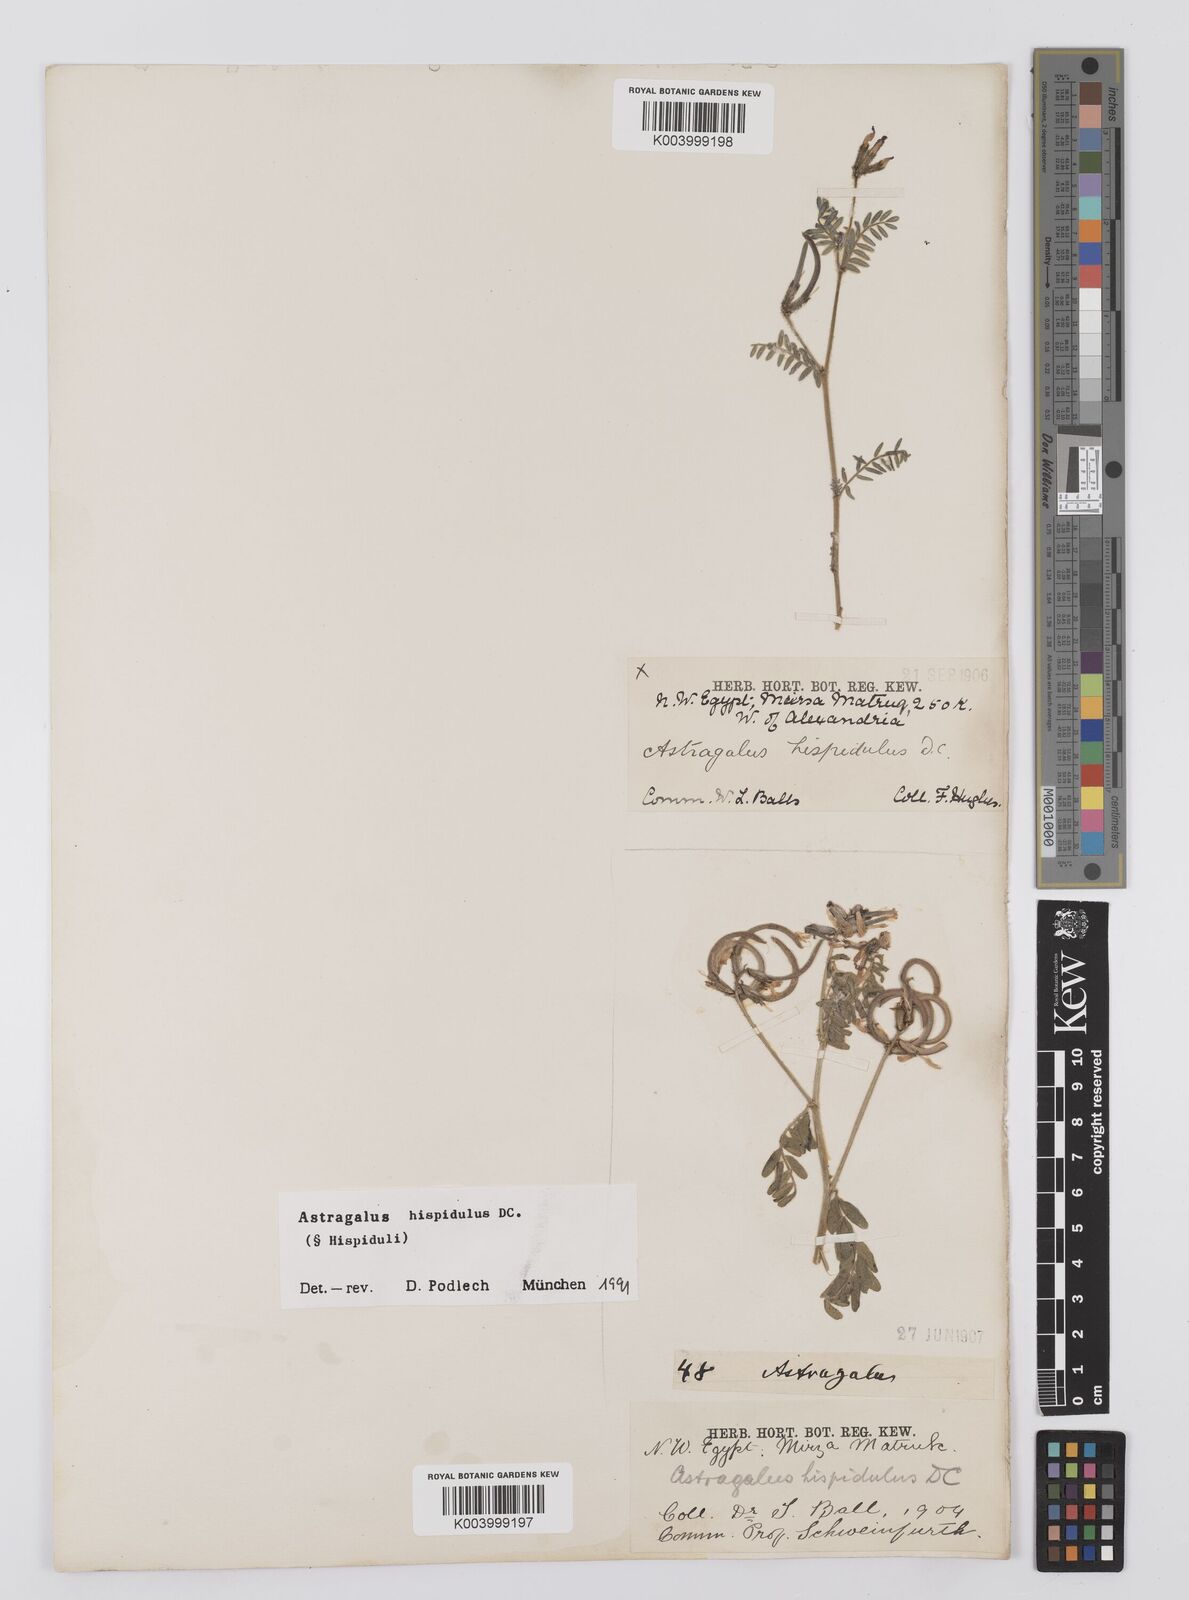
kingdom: Plantae
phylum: Tracheophyta
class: Magnoliopsida
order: Fabales
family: Fabaceae
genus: Astragalus
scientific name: Astragalus hispidulus
